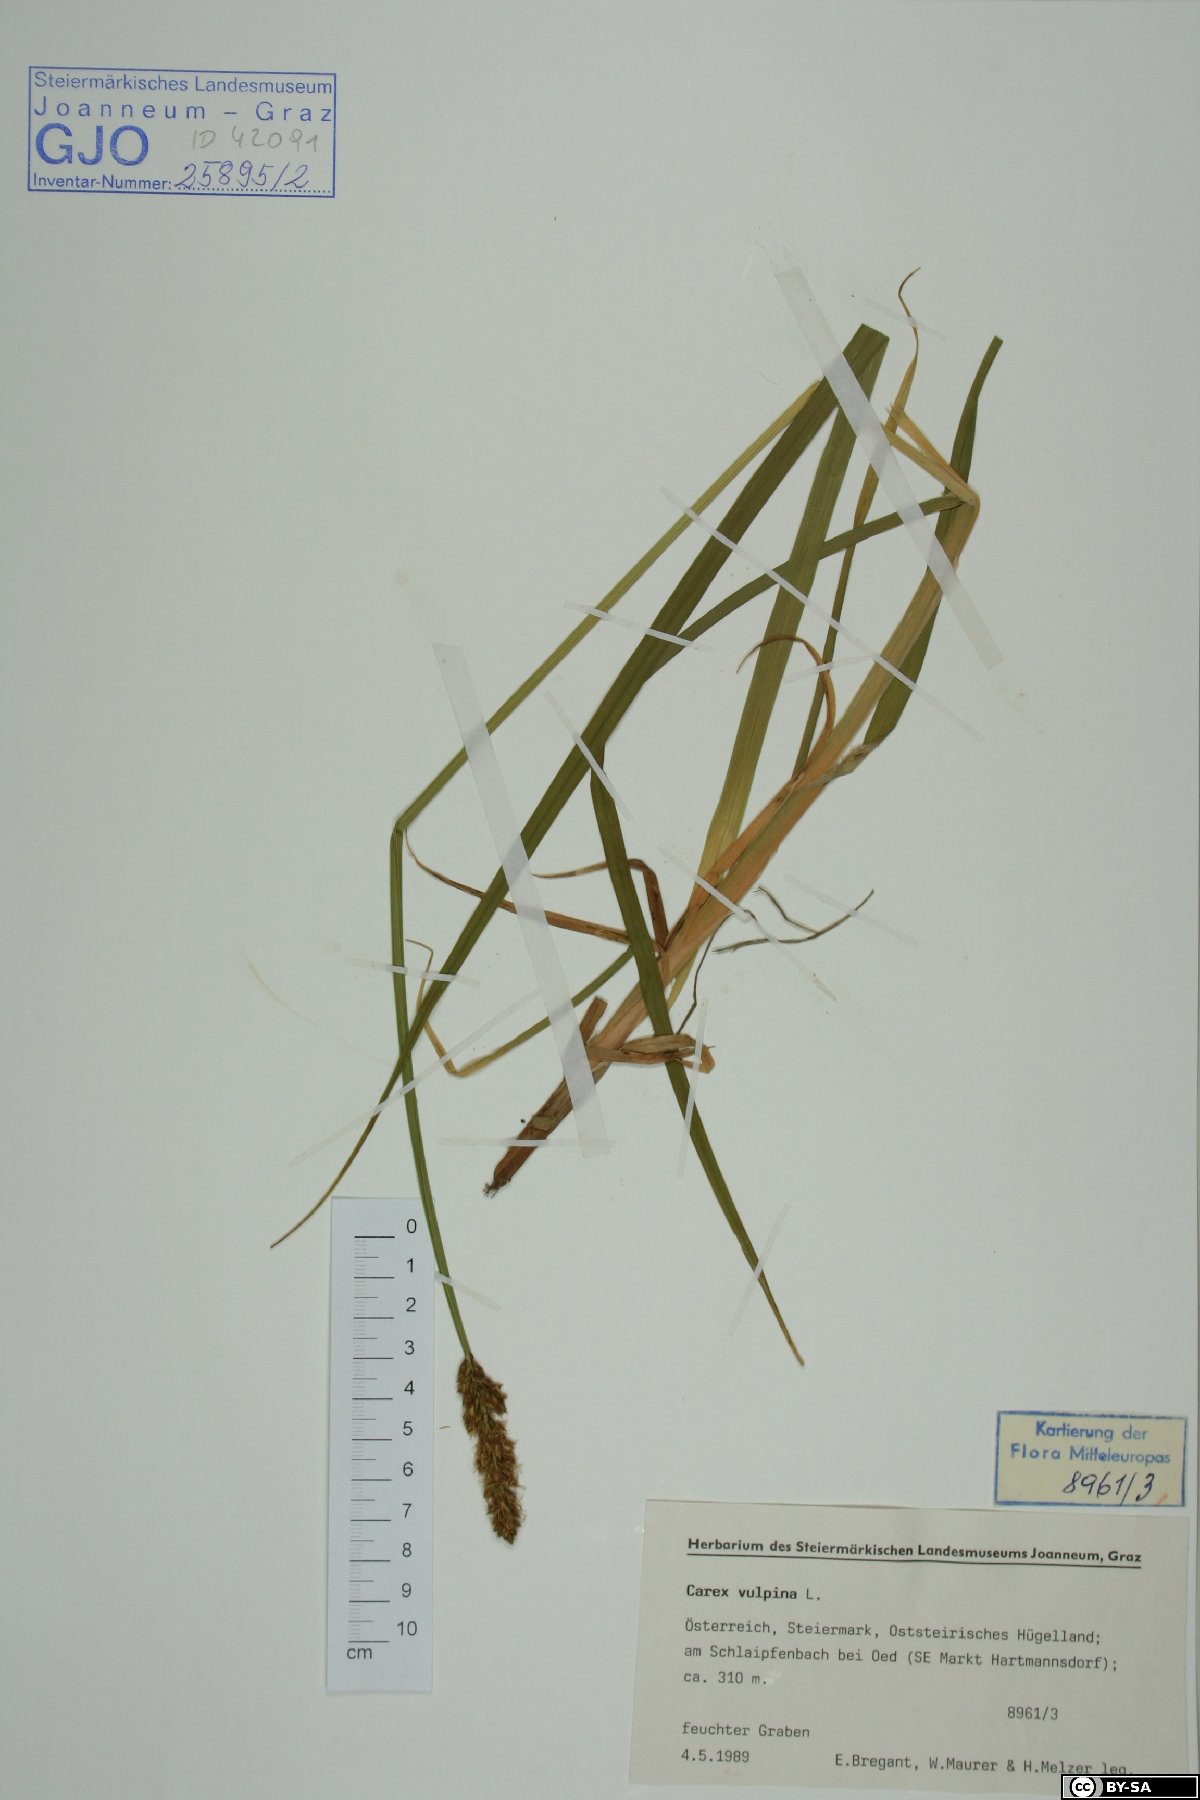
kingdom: Plantae
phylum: Tracheophyta
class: Liliopsida
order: Poales
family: Cyperaceae
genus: Carex
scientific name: Carex vulpina
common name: True fox-sedge
